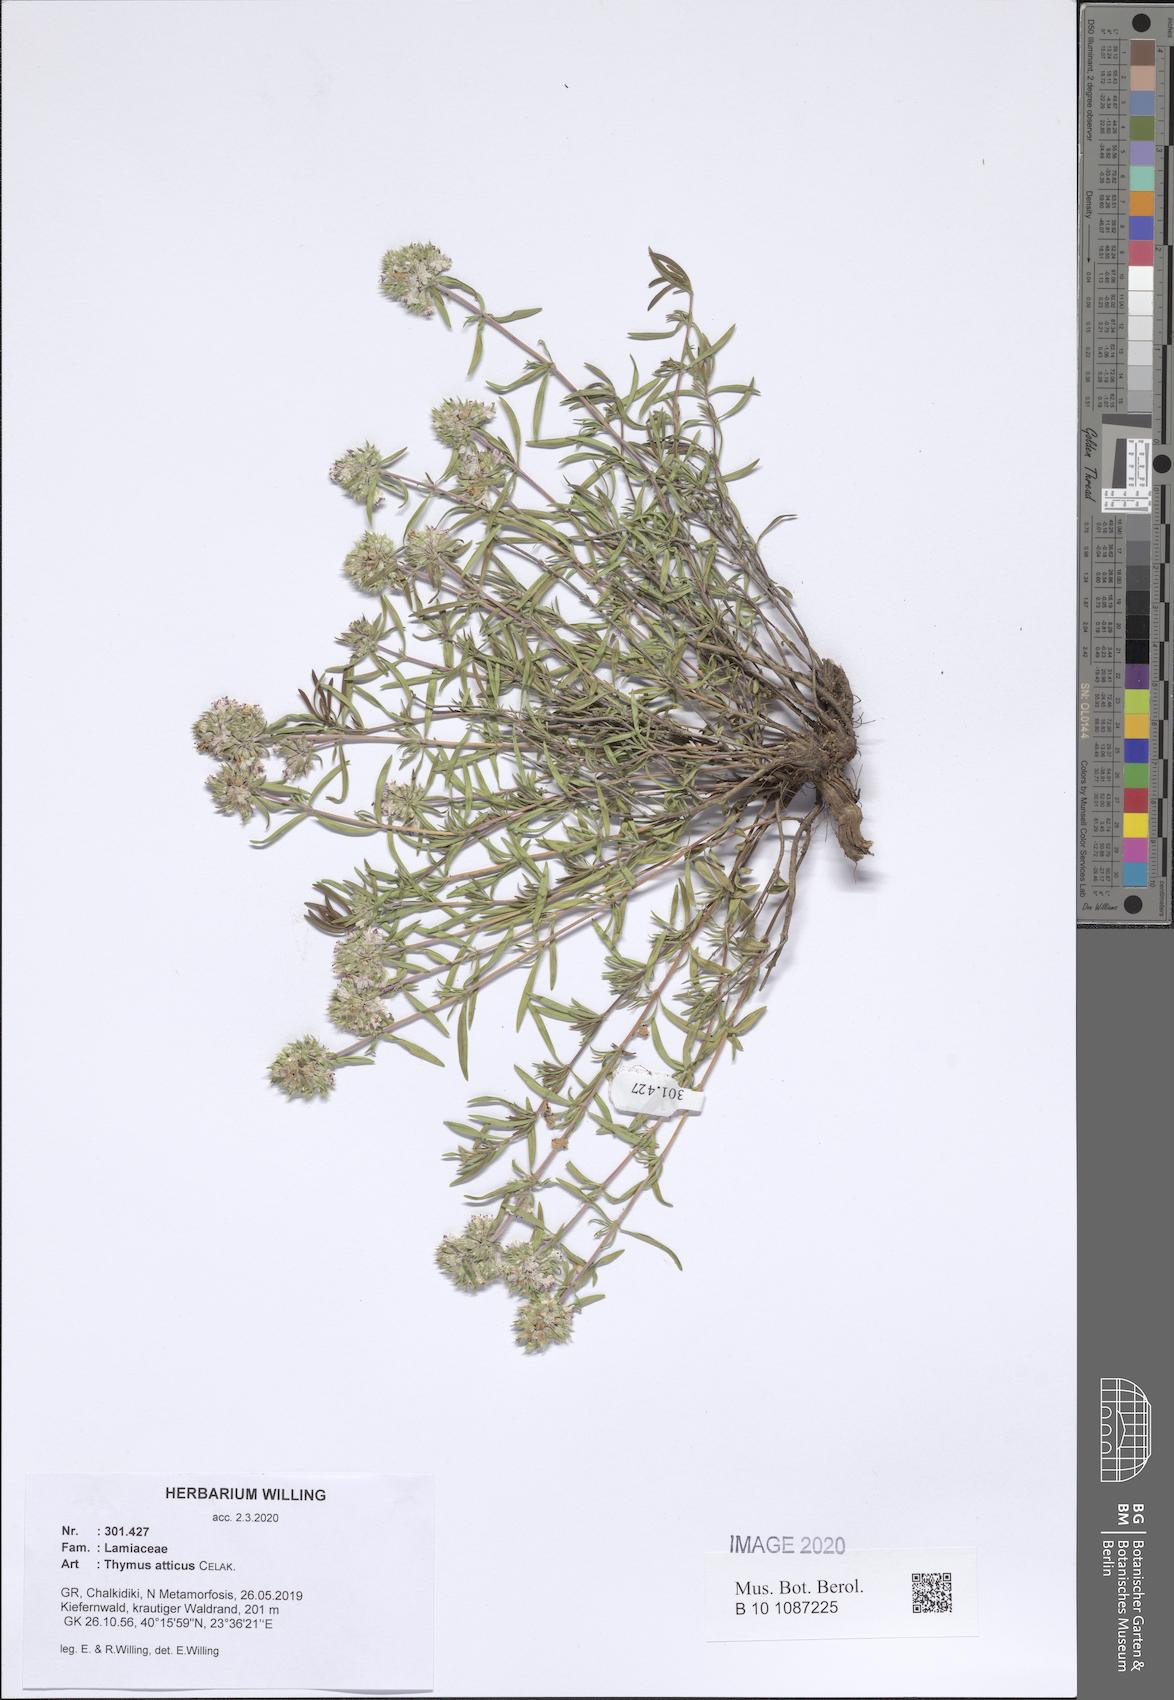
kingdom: Plantae
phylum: Tracheophyta
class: Magnoliopsida
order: Lamiales
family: Lamiaceae
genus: Thymus
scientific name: Thymus
